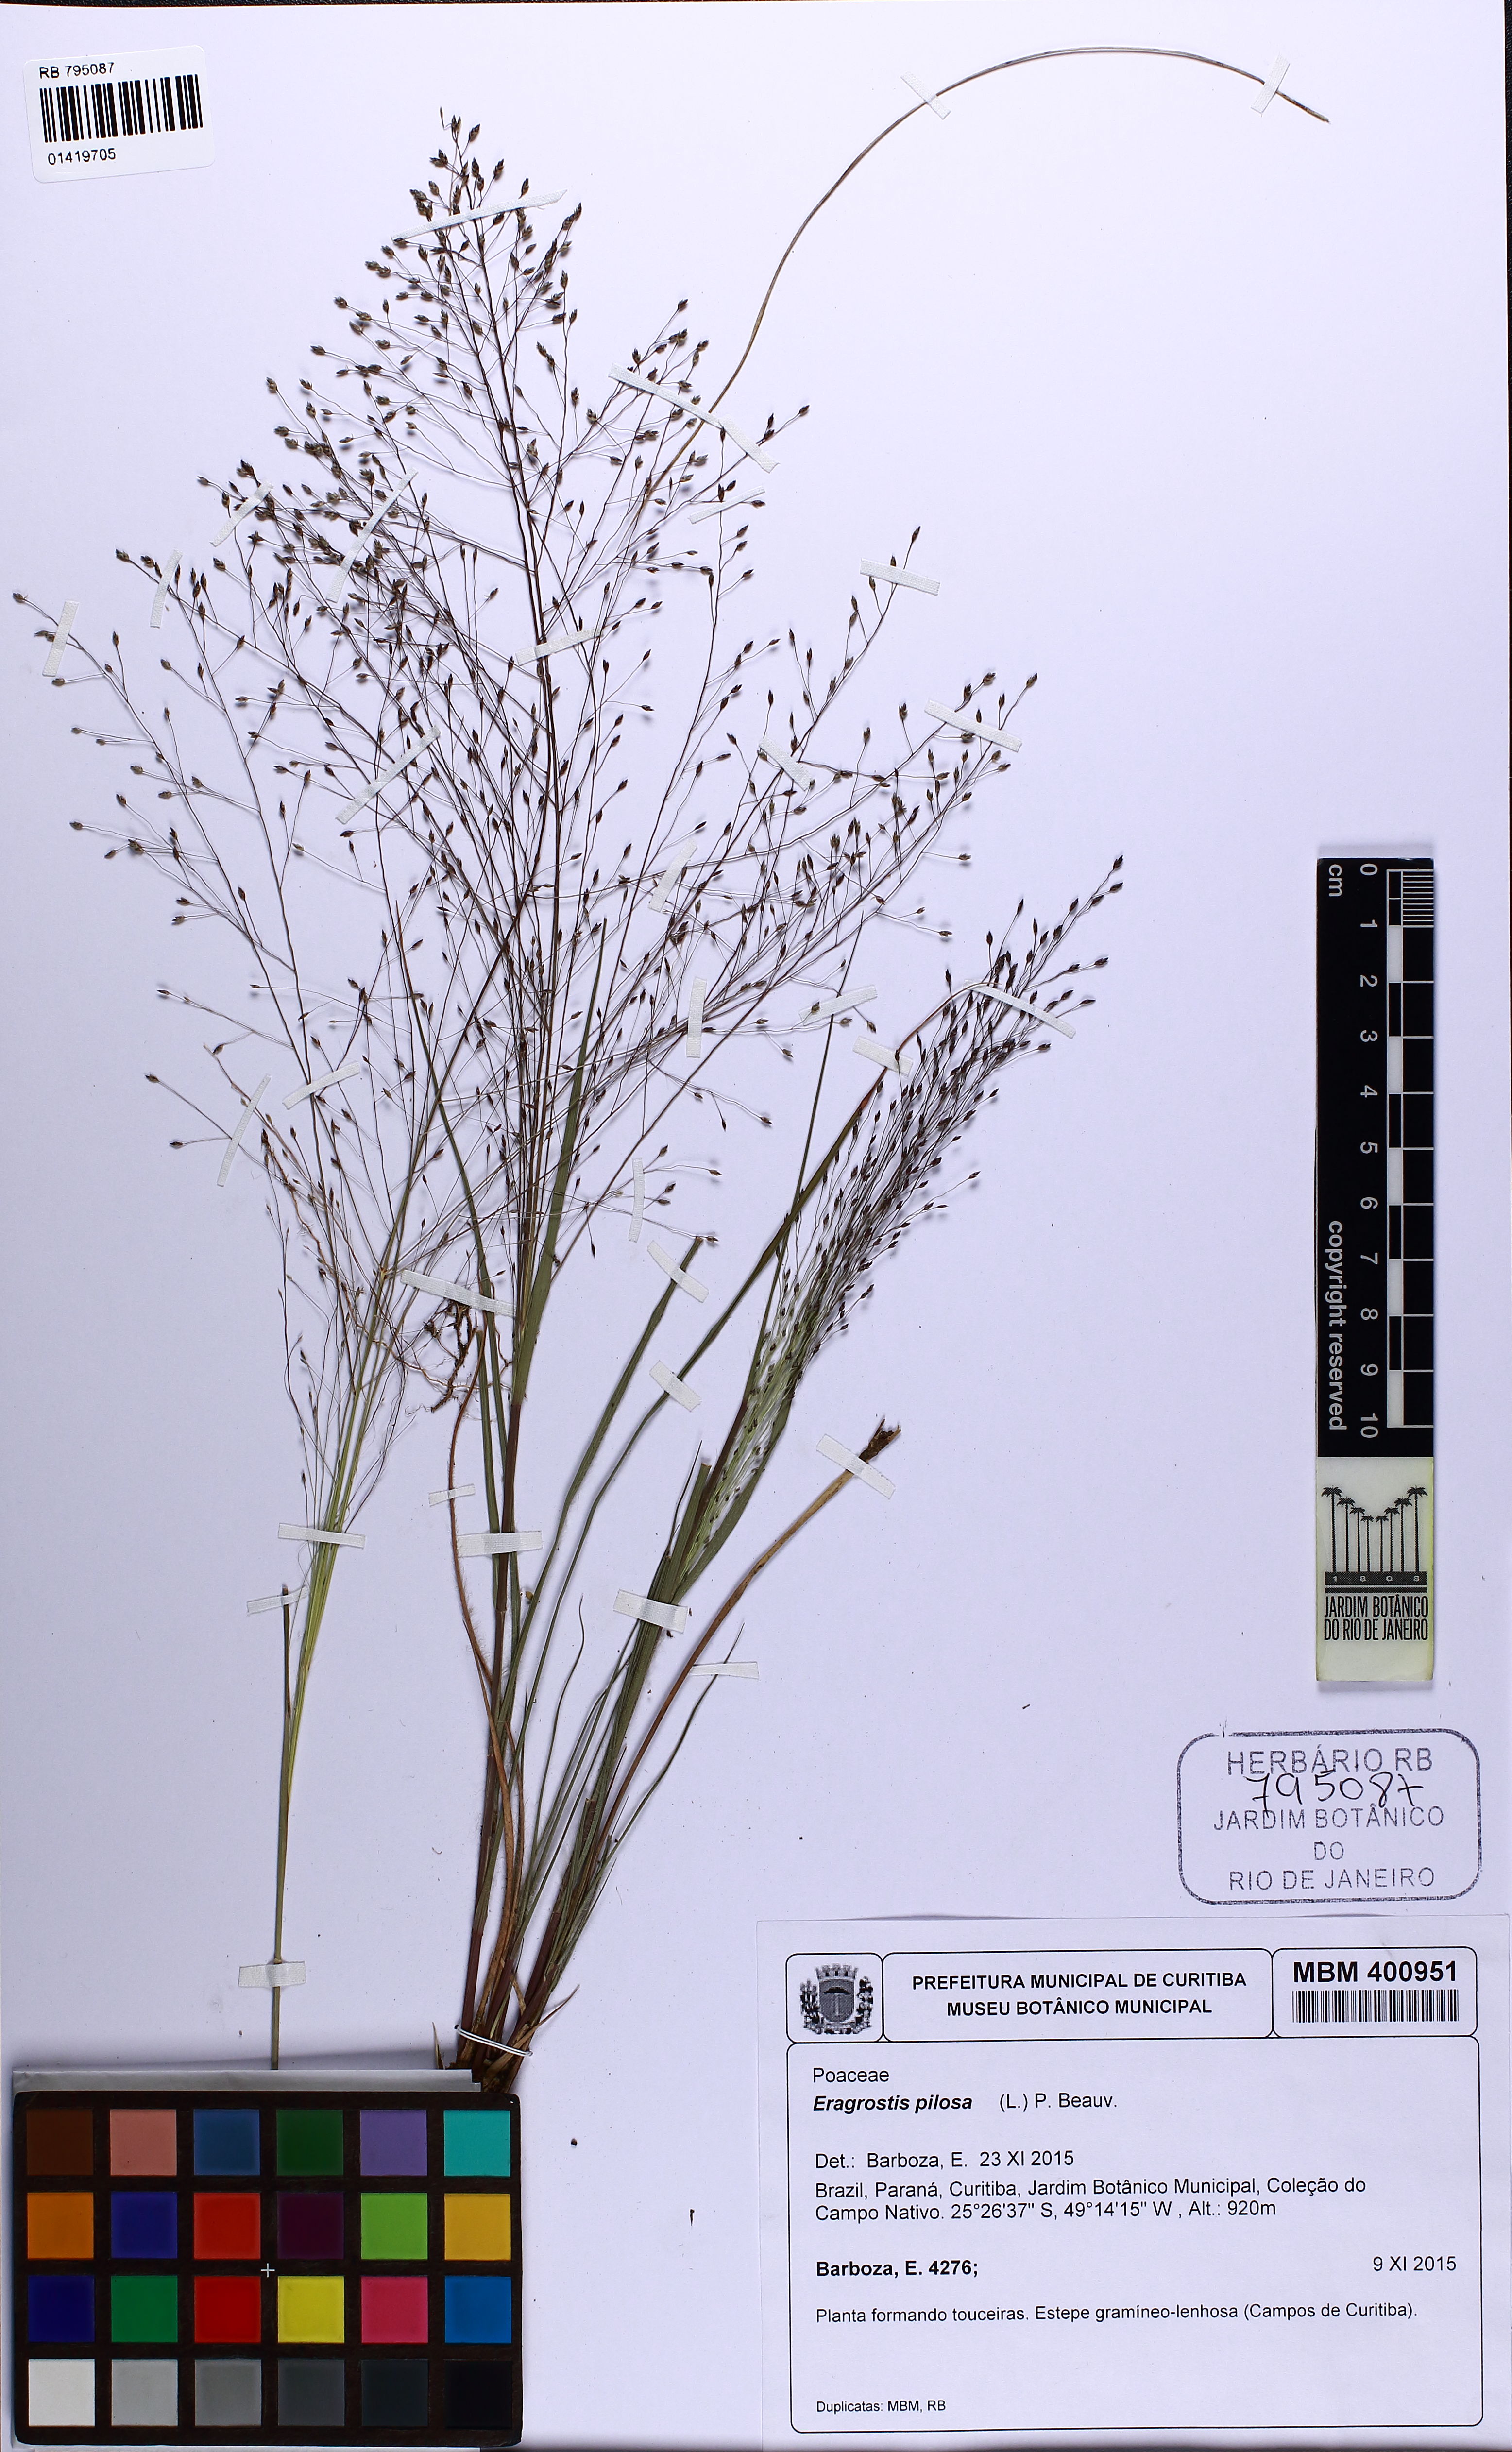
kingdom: Plantae
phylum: Tracheophyta
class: Liliopsida
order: Poales
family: Poaceae
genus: Eragrostis
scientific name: Eragrostis pilosa
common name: Indian lovegrass
